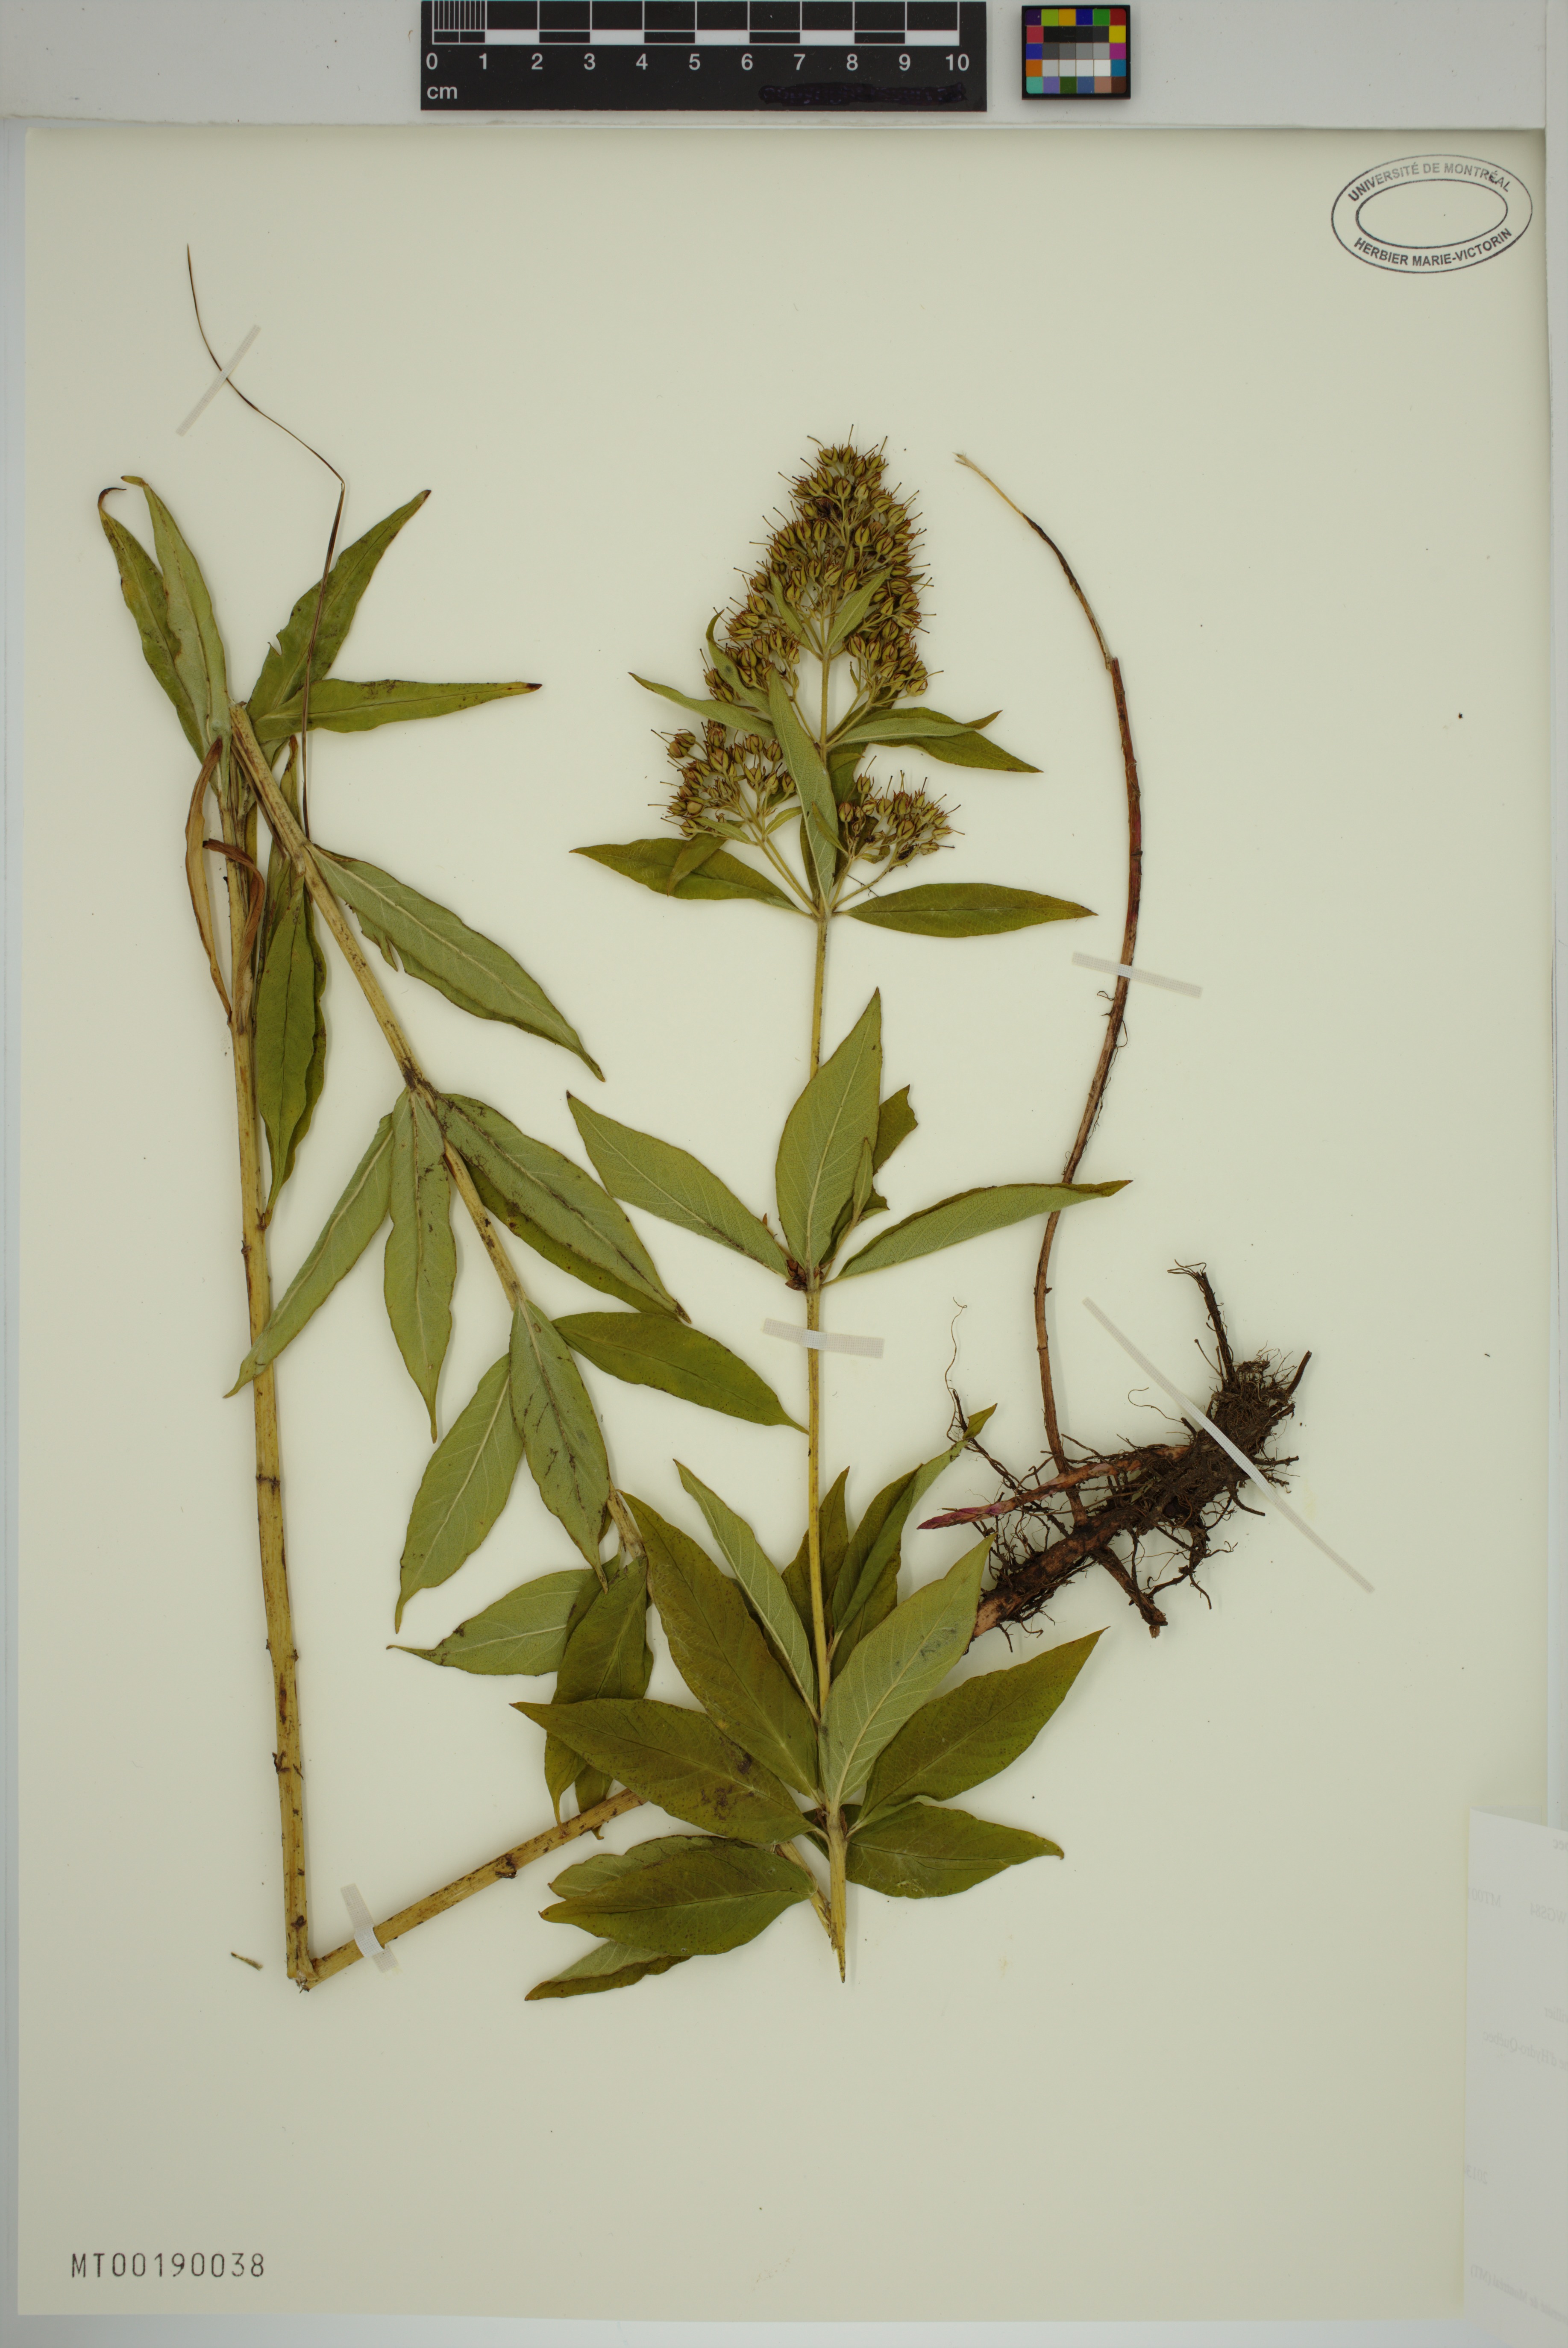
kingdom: Plantae
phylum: Tracheophyta
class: Magnoliopsida
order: Ericales
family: Primulaceae
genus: Lysimachia
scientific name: Lysimachia vulgaris
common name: Yellow loosestrife
